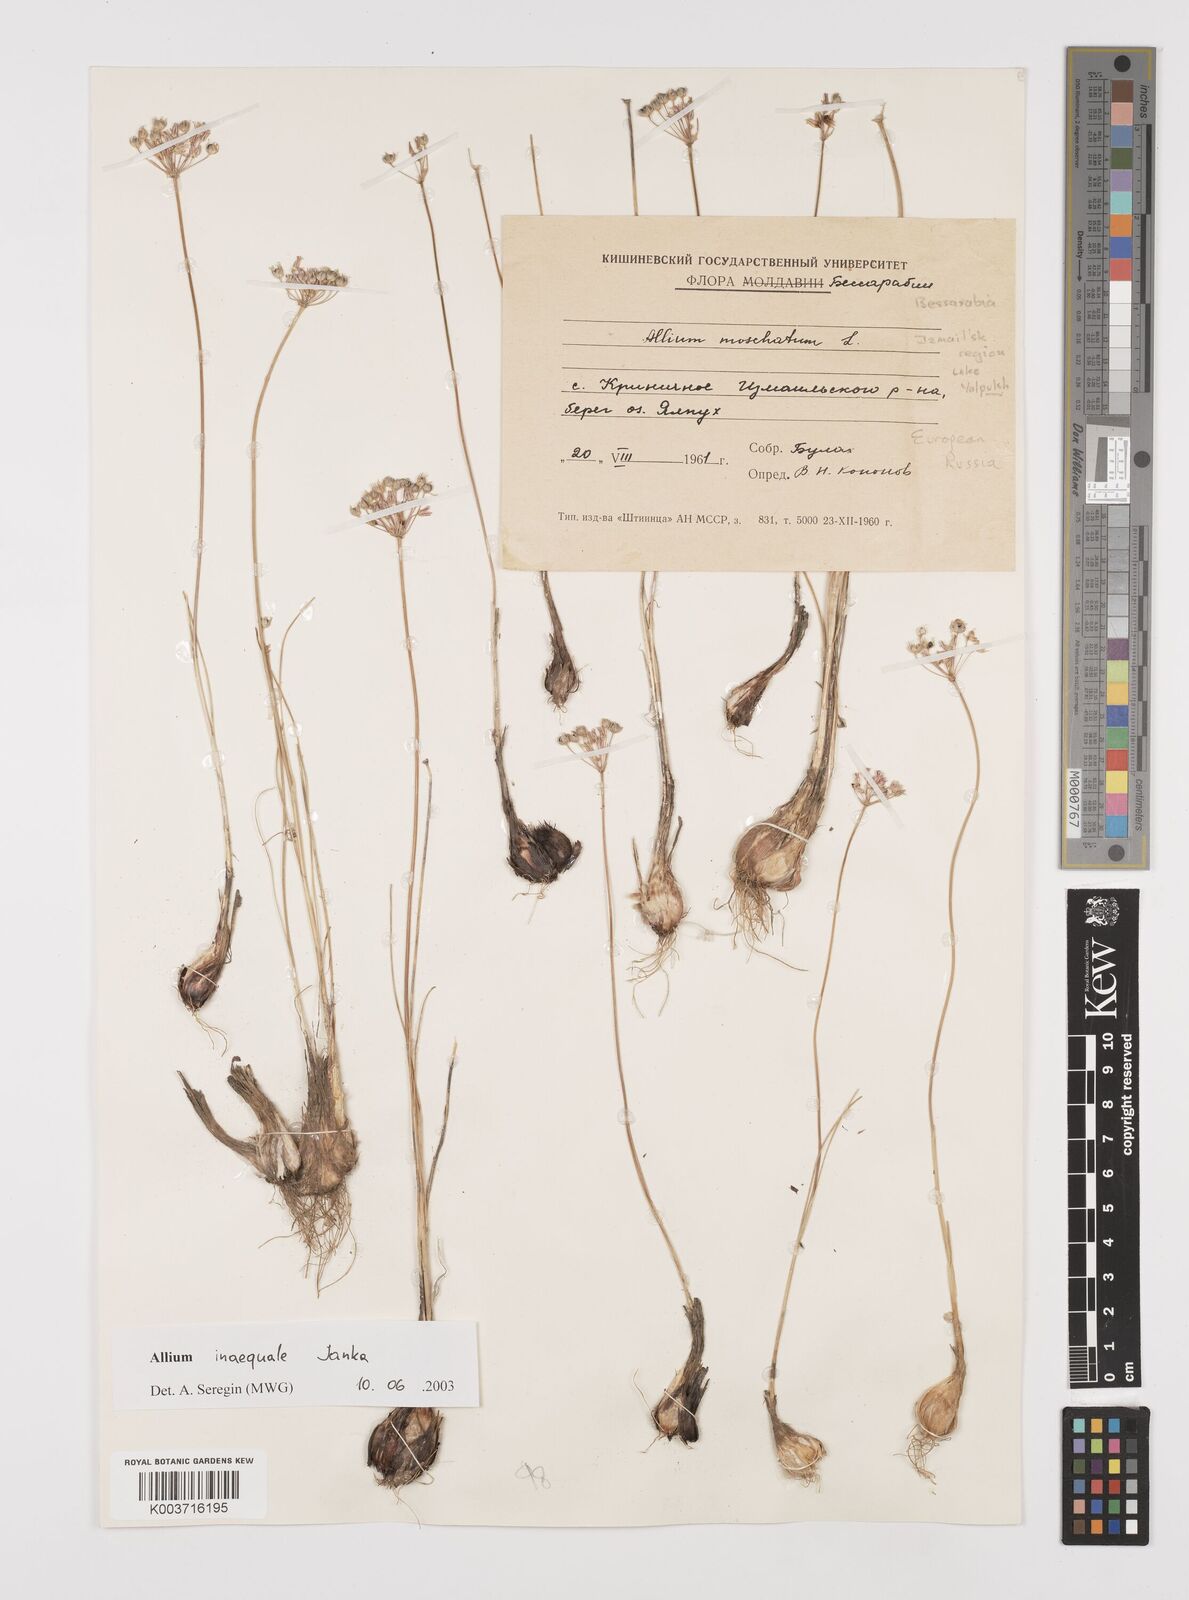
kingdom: Plantae
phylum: Tracheophyta
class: Liliopsida
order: Asparagales
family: Amaryllidaceae
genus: Allium
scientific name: Allium inaequale
